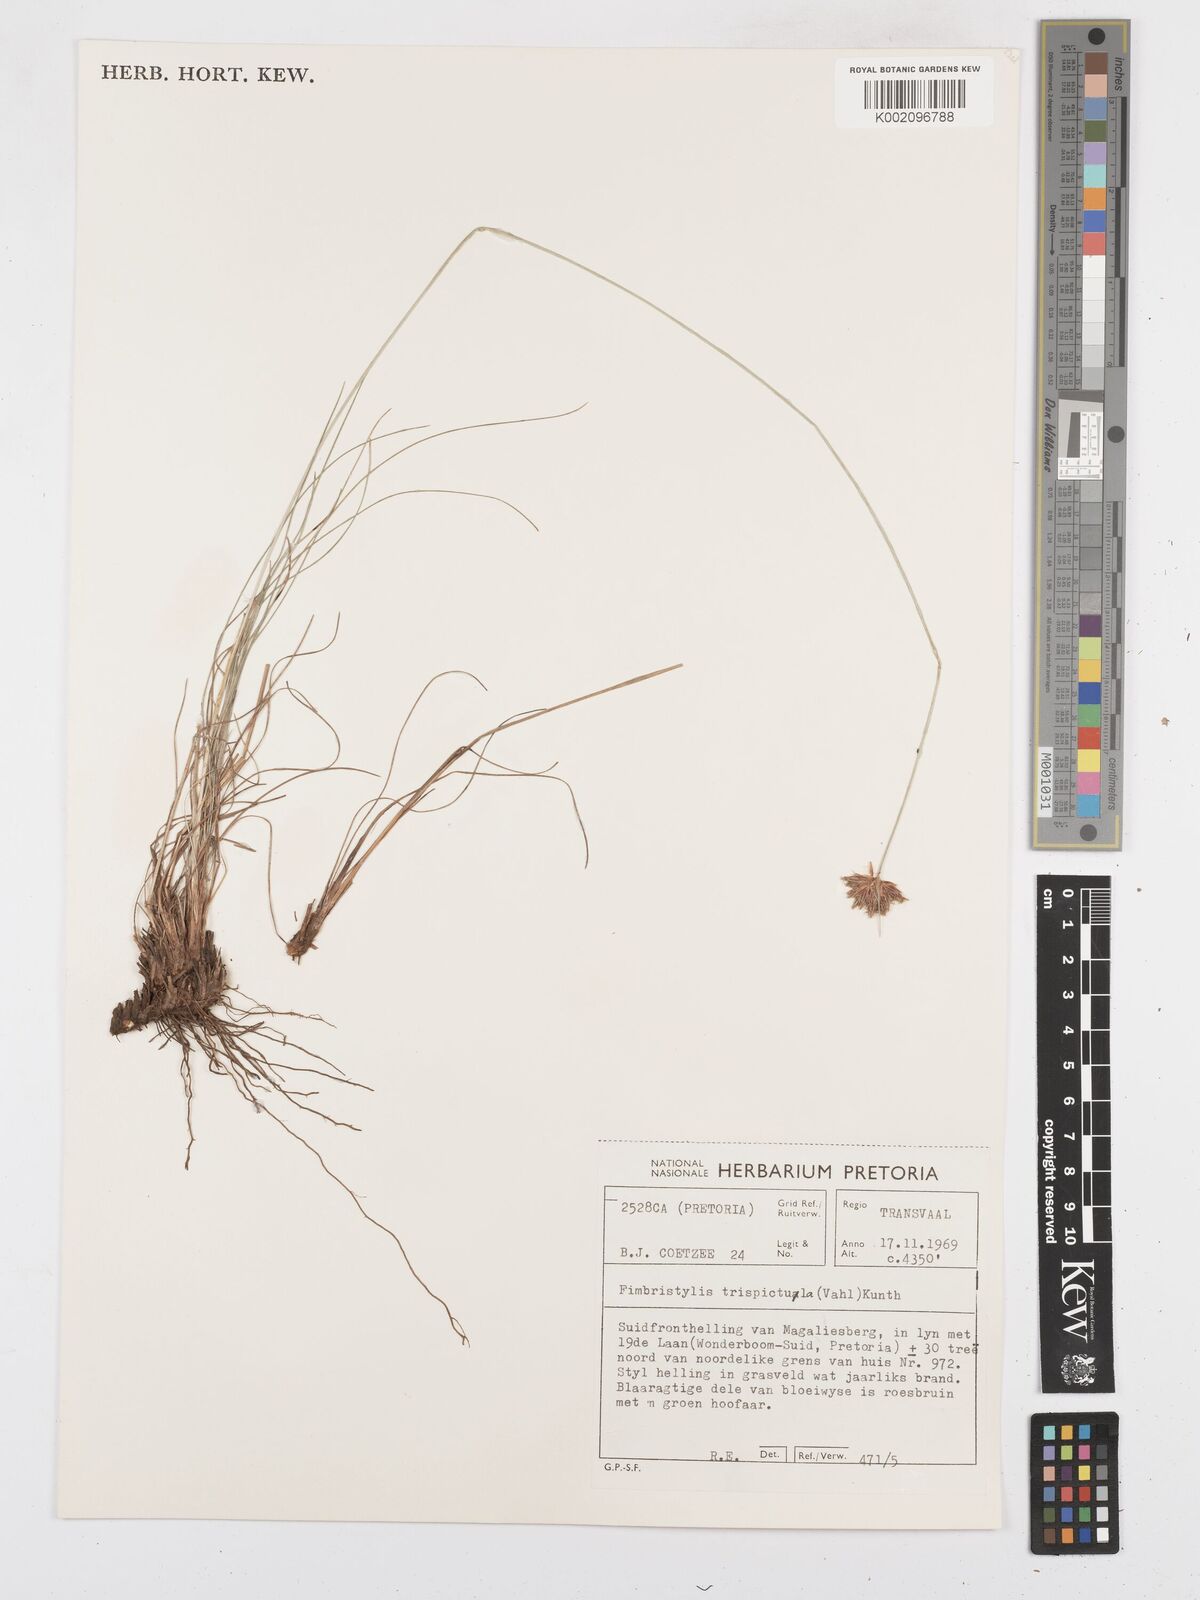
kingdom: Plantae
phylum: Tracheophyta
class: Liliopsida
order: Poales
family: Cyperaceae
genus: Bulbostylis
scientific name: Bulbostylis
